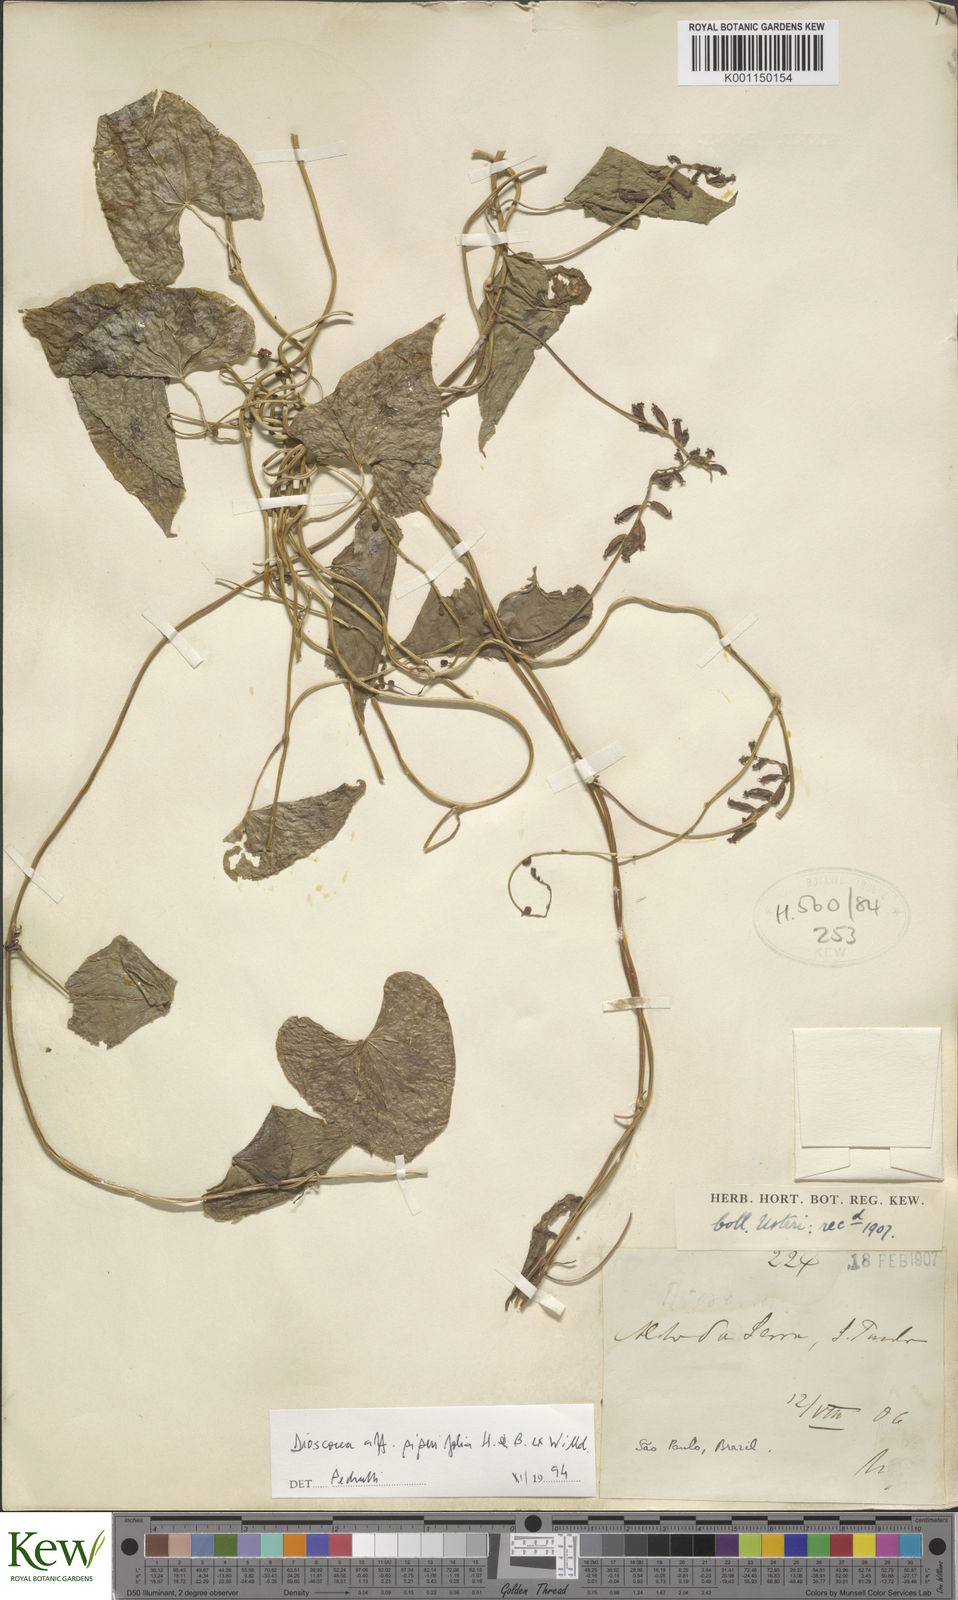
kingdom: Plantae
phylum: Tracheophyta
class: Liliopsida
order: Dioscoreales
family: Dioscoreaceae
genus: Dioscorea
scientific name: Dioscorea monadelpha
